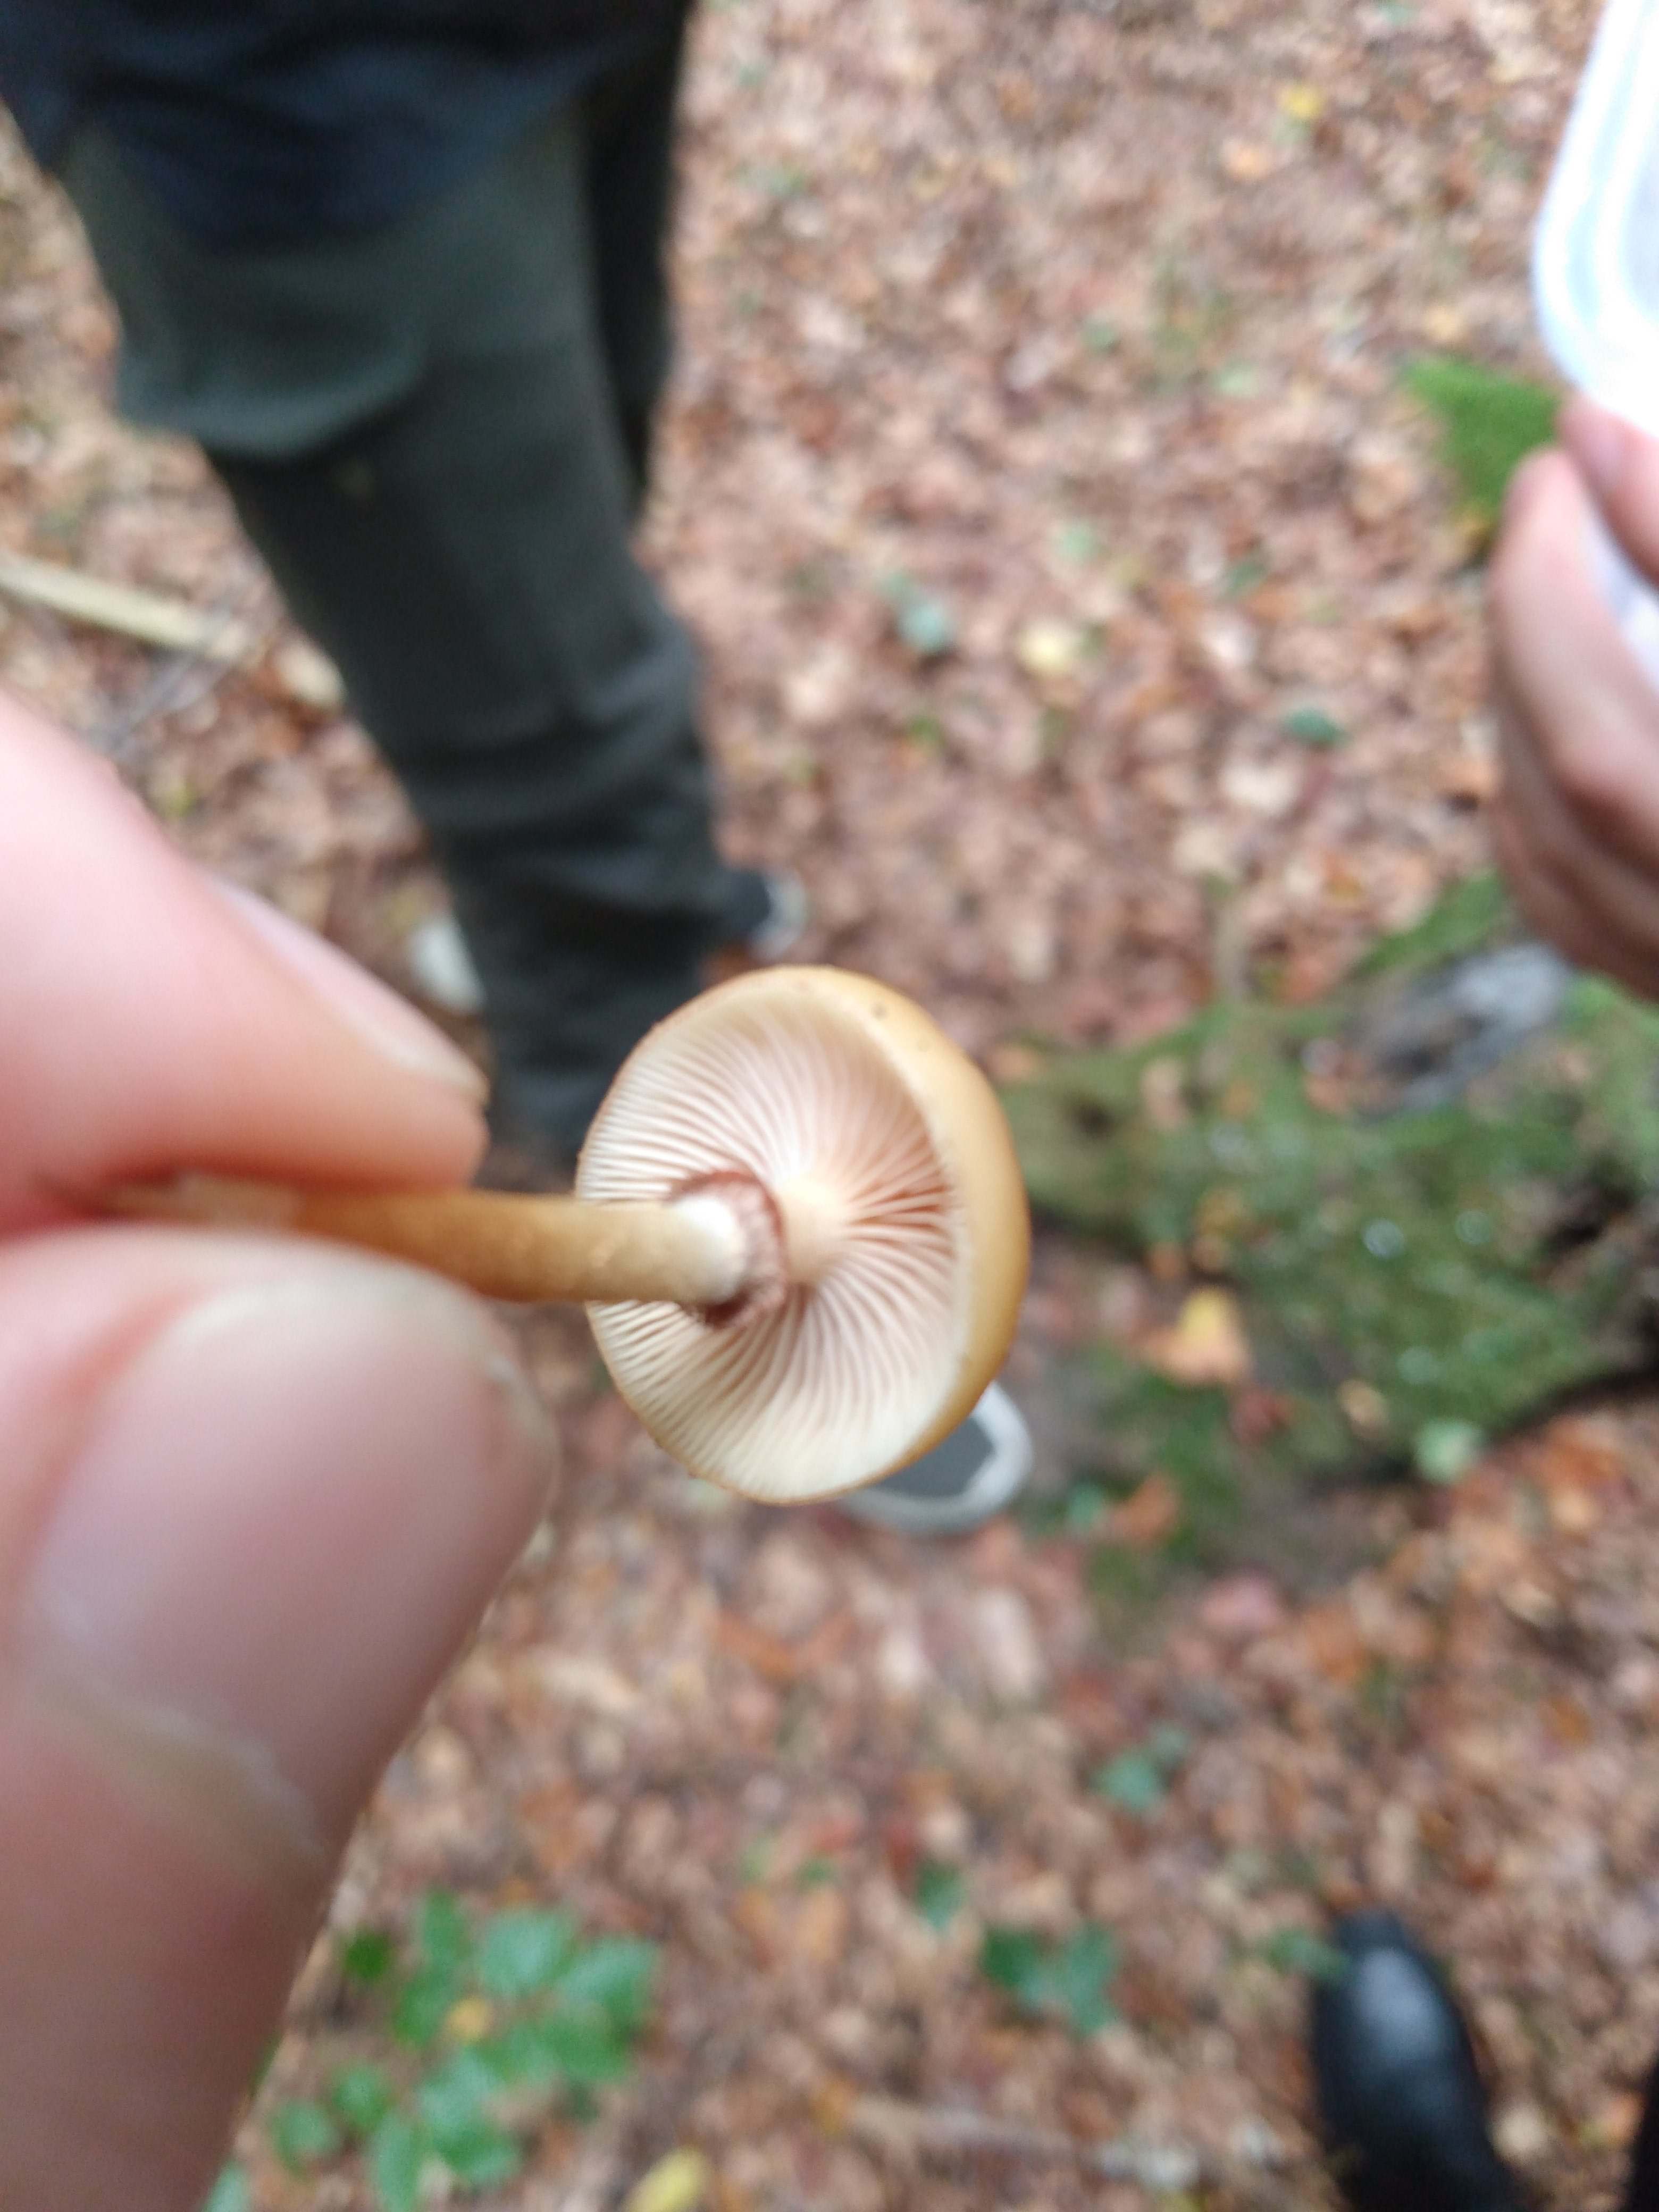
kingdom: Fungi
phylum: Basidiomycota
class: Agaricomycetes
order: Agaricales
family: Strophariaceae
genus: Kuehneromyces
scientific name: Kuehneromyces mutabilis
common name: foranderlig skælhat
